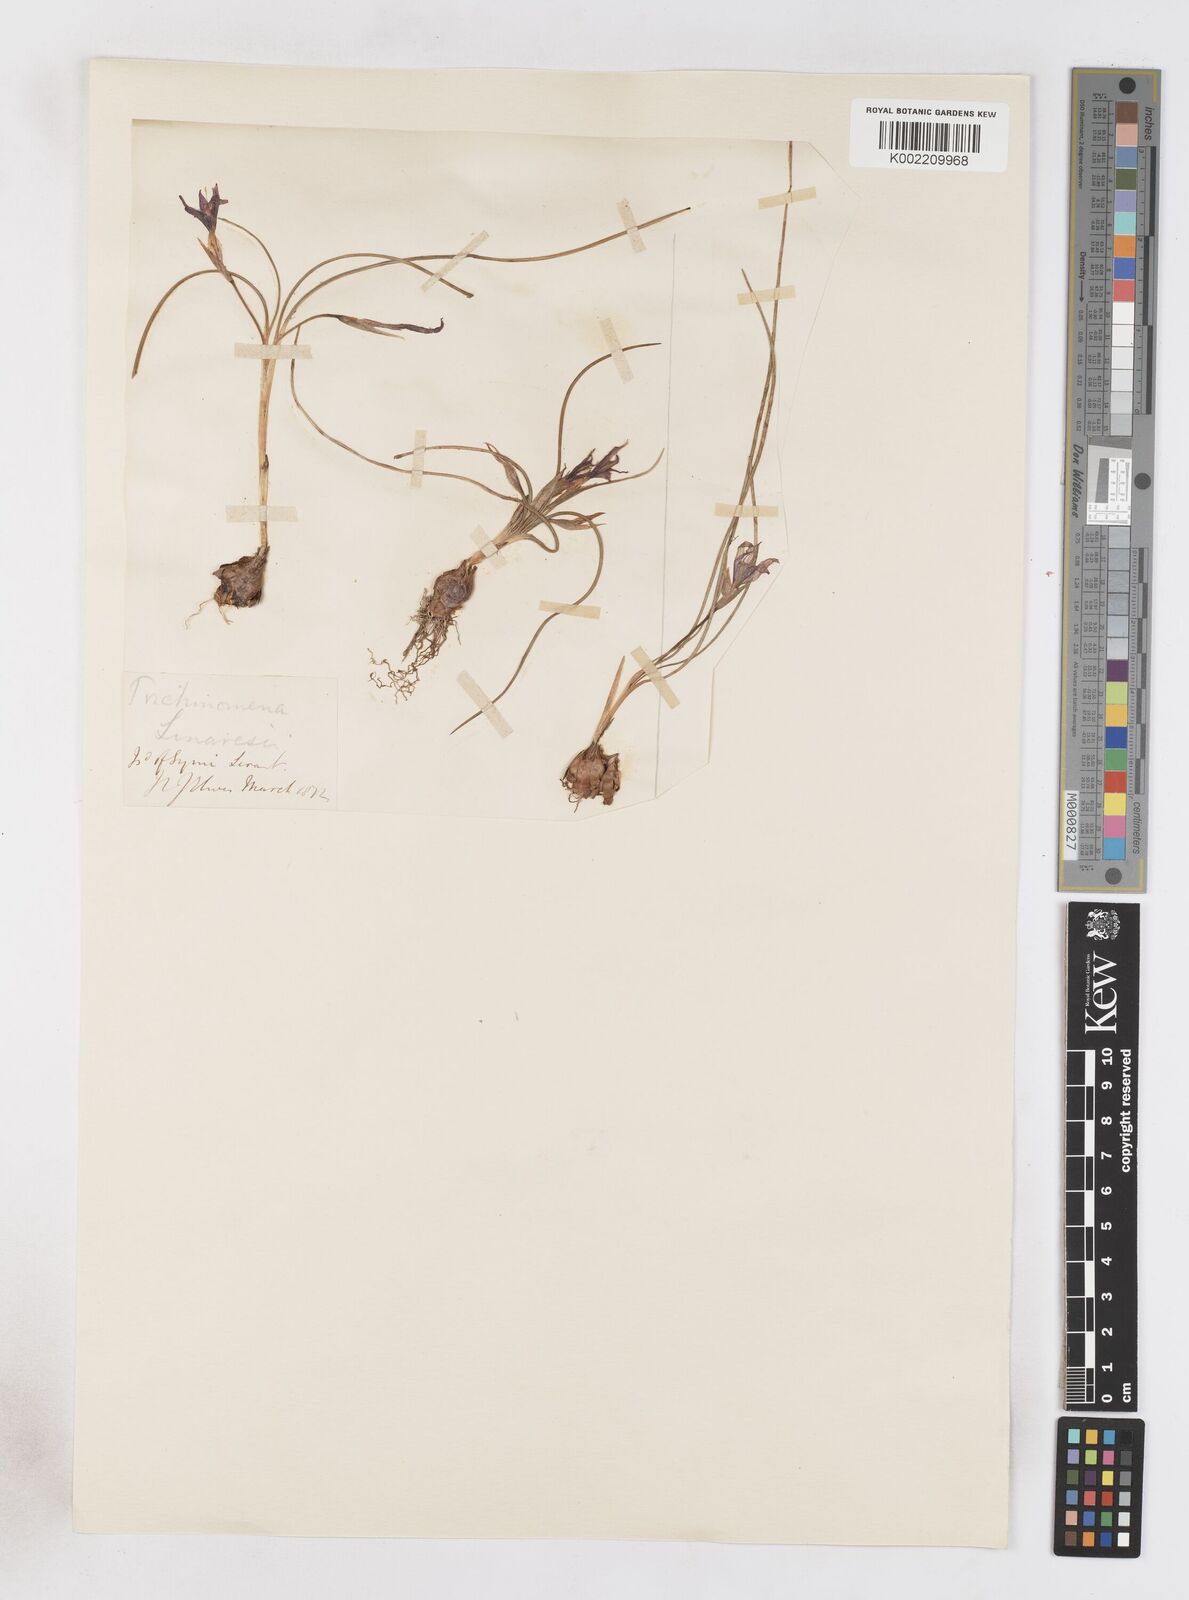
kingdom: Plantae
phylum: Tracheophyta
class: Liliopsida
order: Asparagales
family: Iridaceae
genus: Romulea
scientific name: Romulea tempskyana
